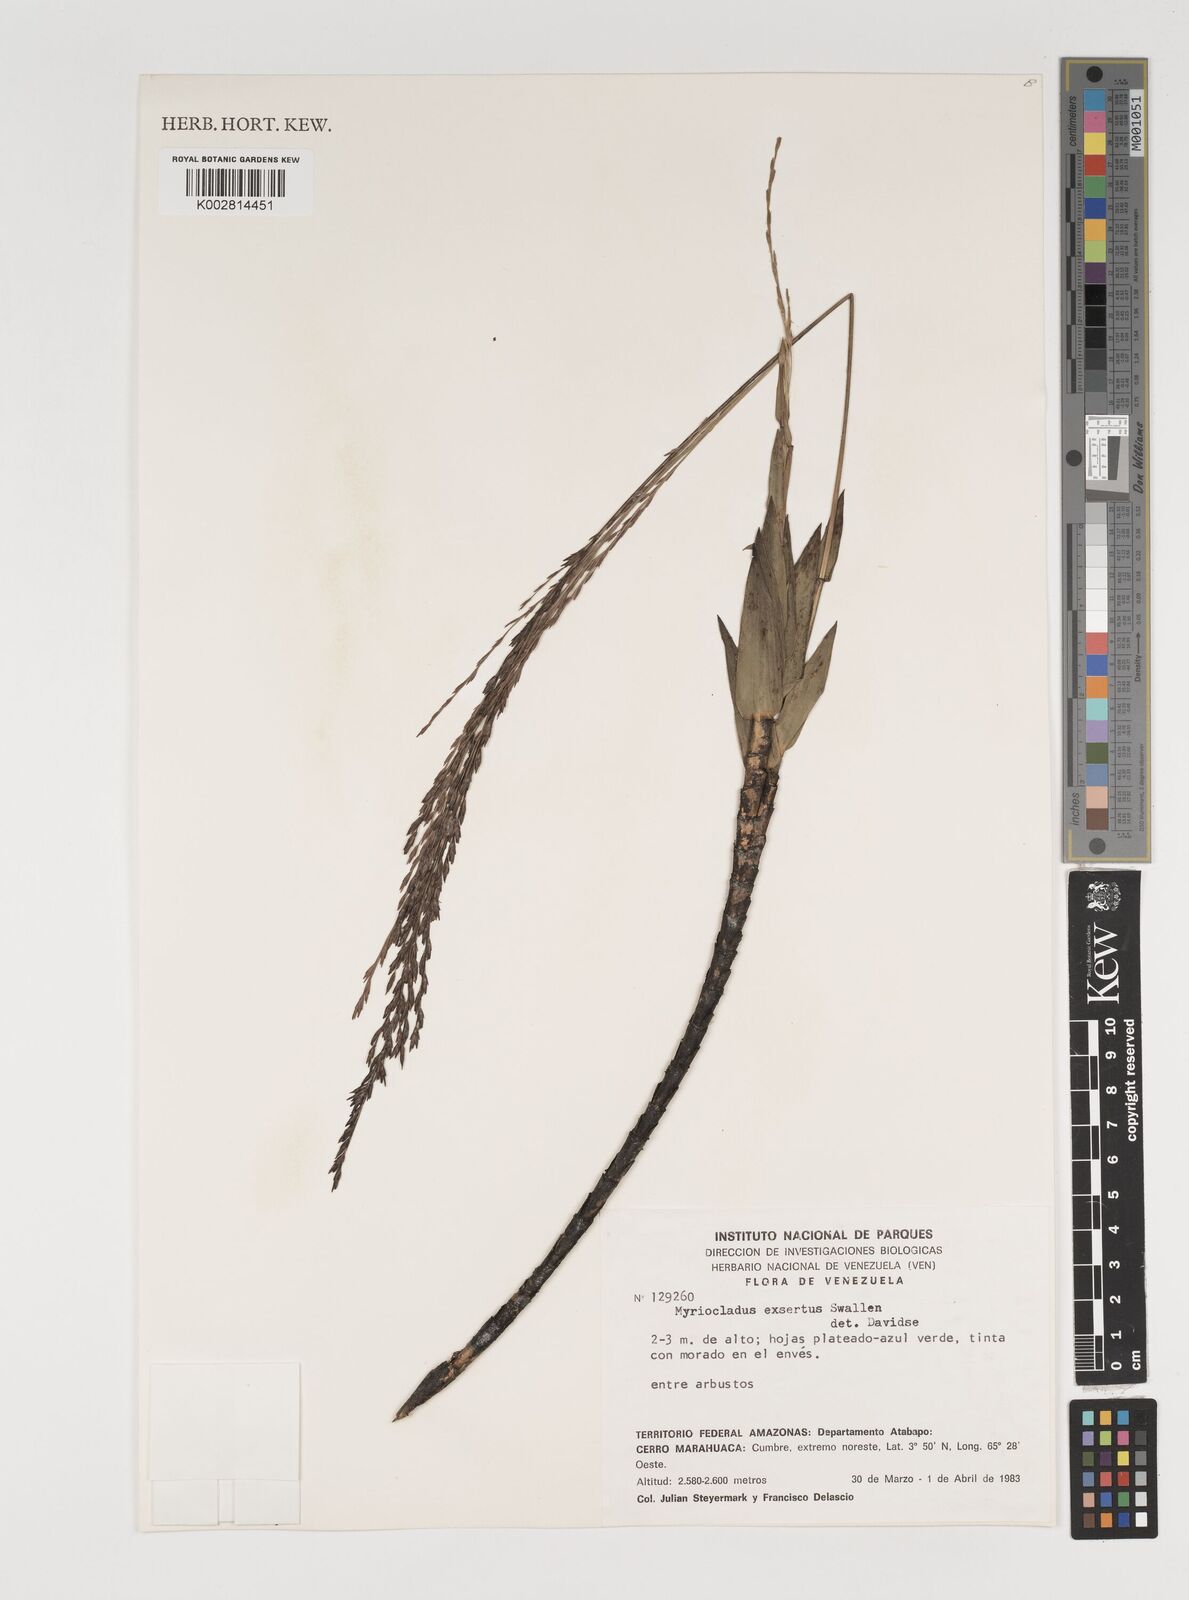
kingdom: Plantae
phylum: Tracheophyta
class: Liliopsida
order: Poales
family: Poaceae
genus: Myriocladus
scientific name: Myriocladus exsertus
